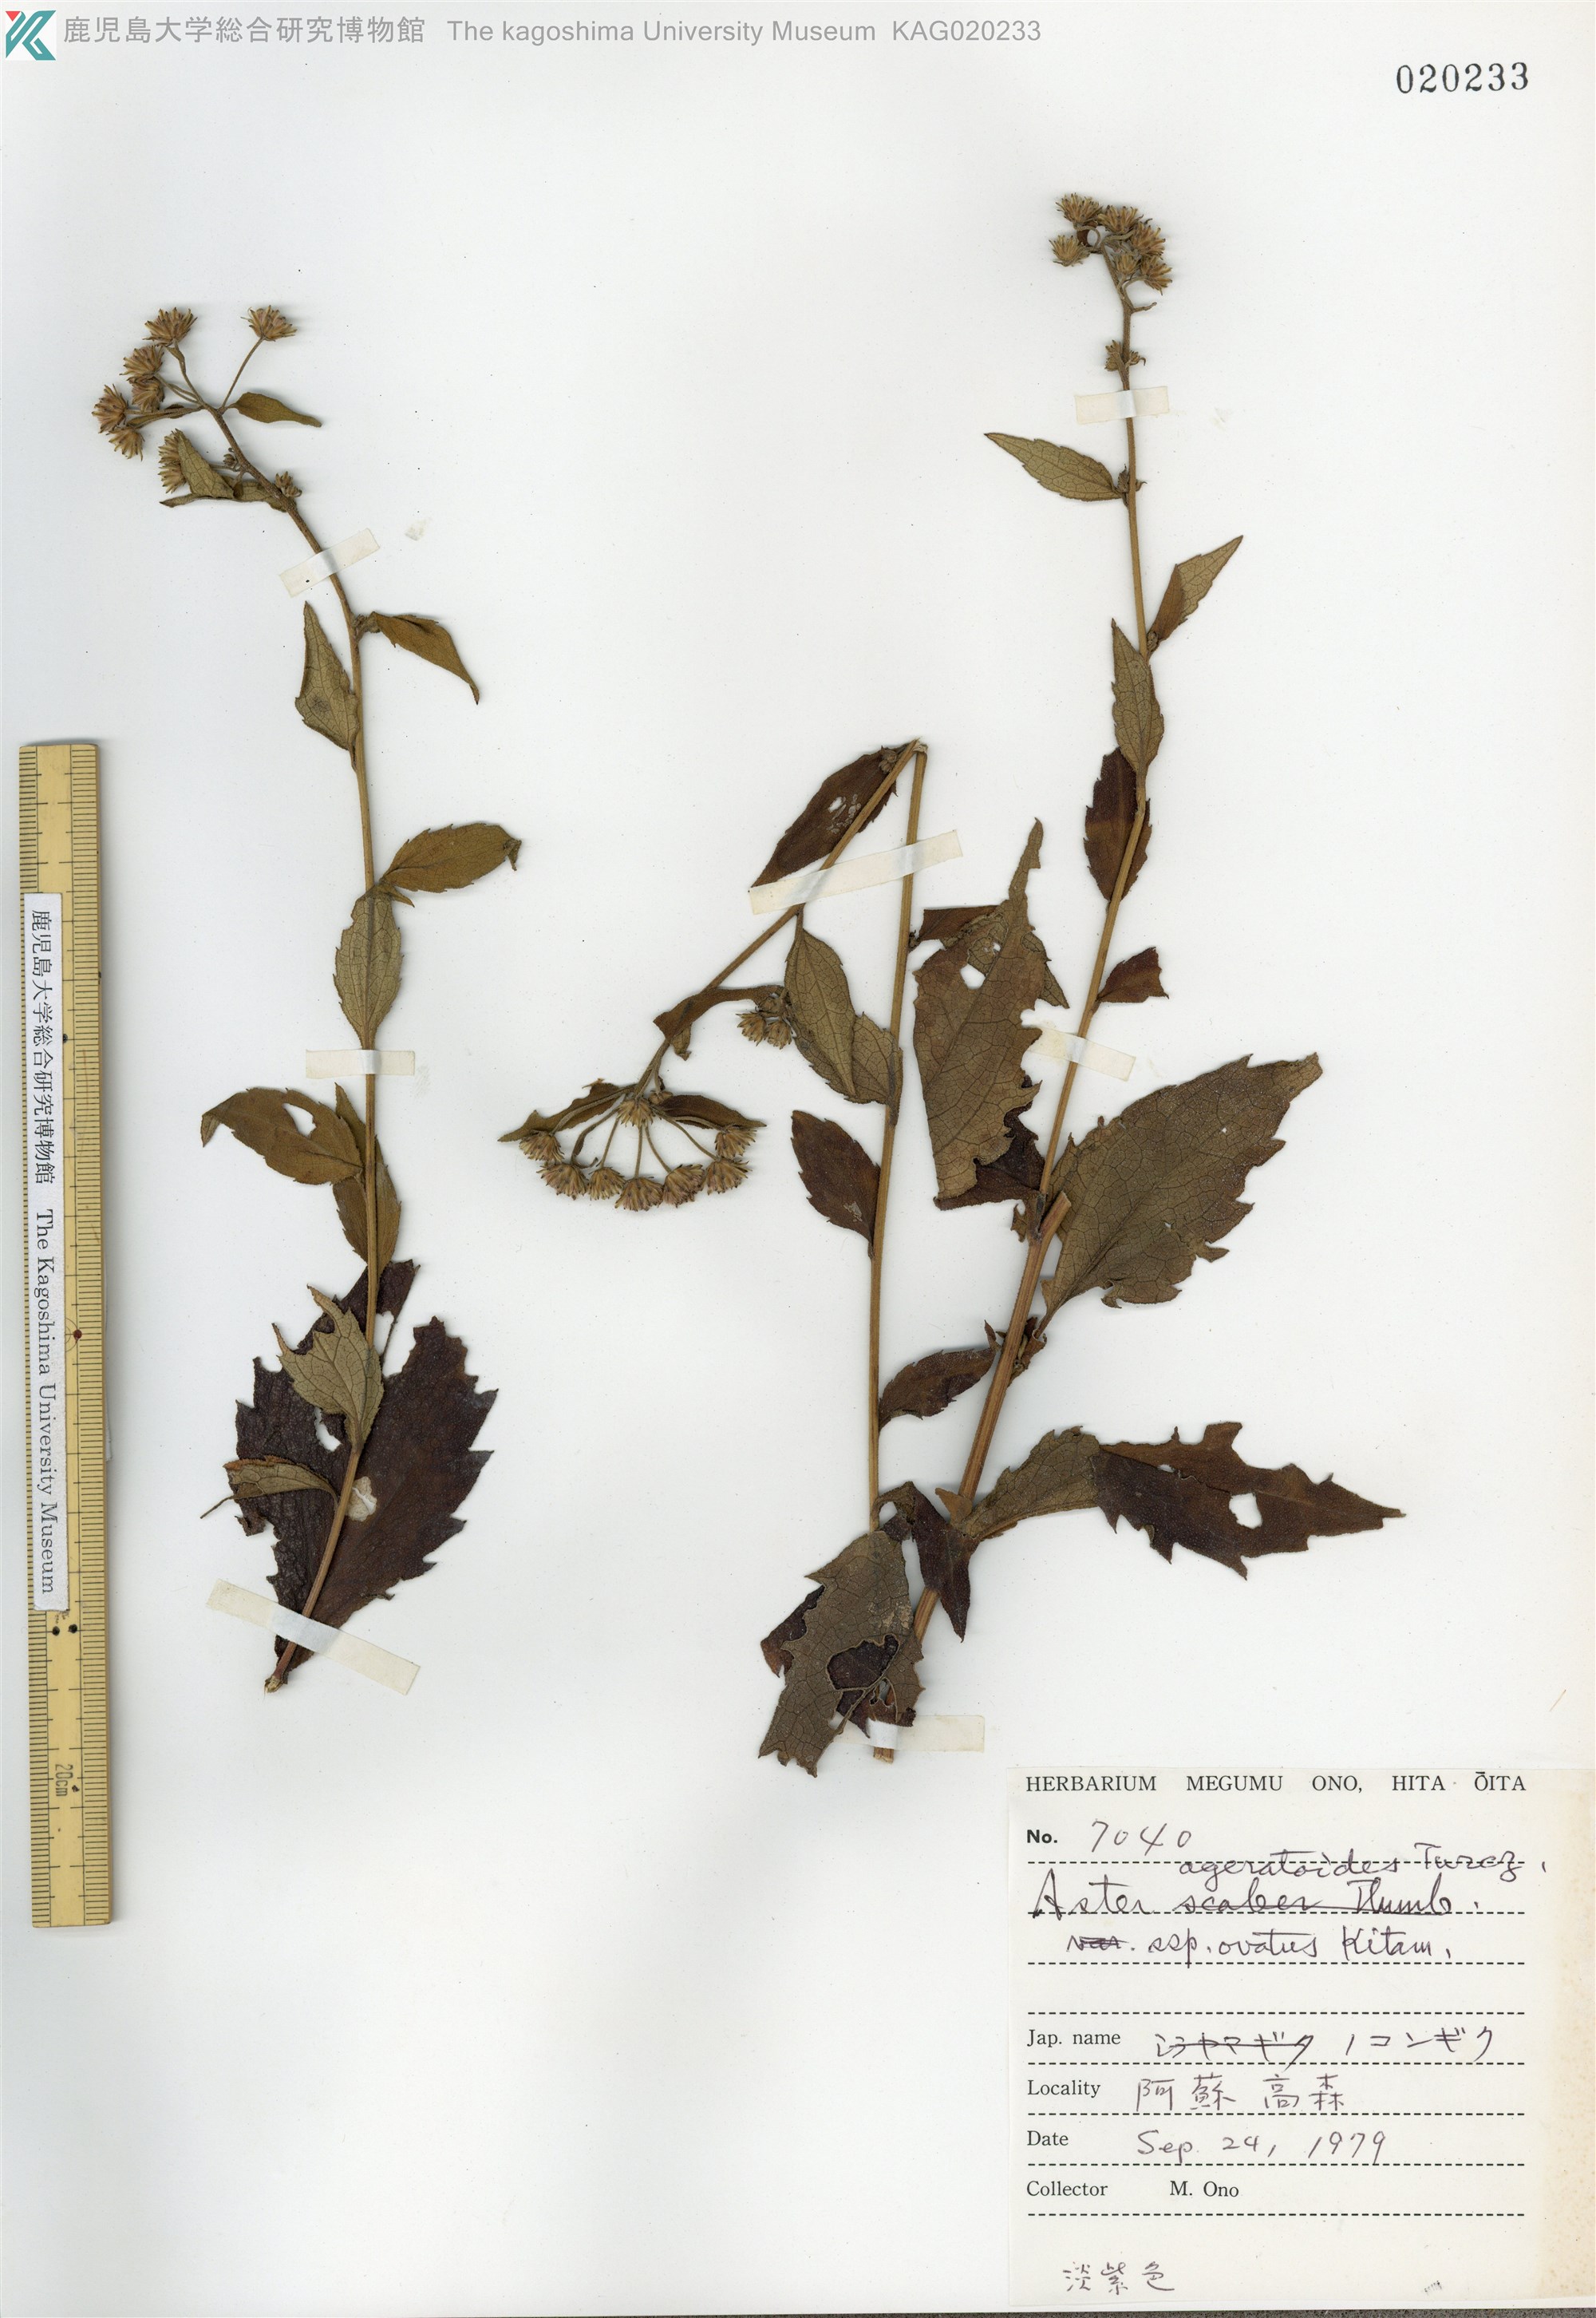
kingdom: Plantae
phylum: Tracheophyta
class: Magnoliopsida
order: Asterales
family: Asteraceae
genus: Aster
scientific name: Aster microcephalus
